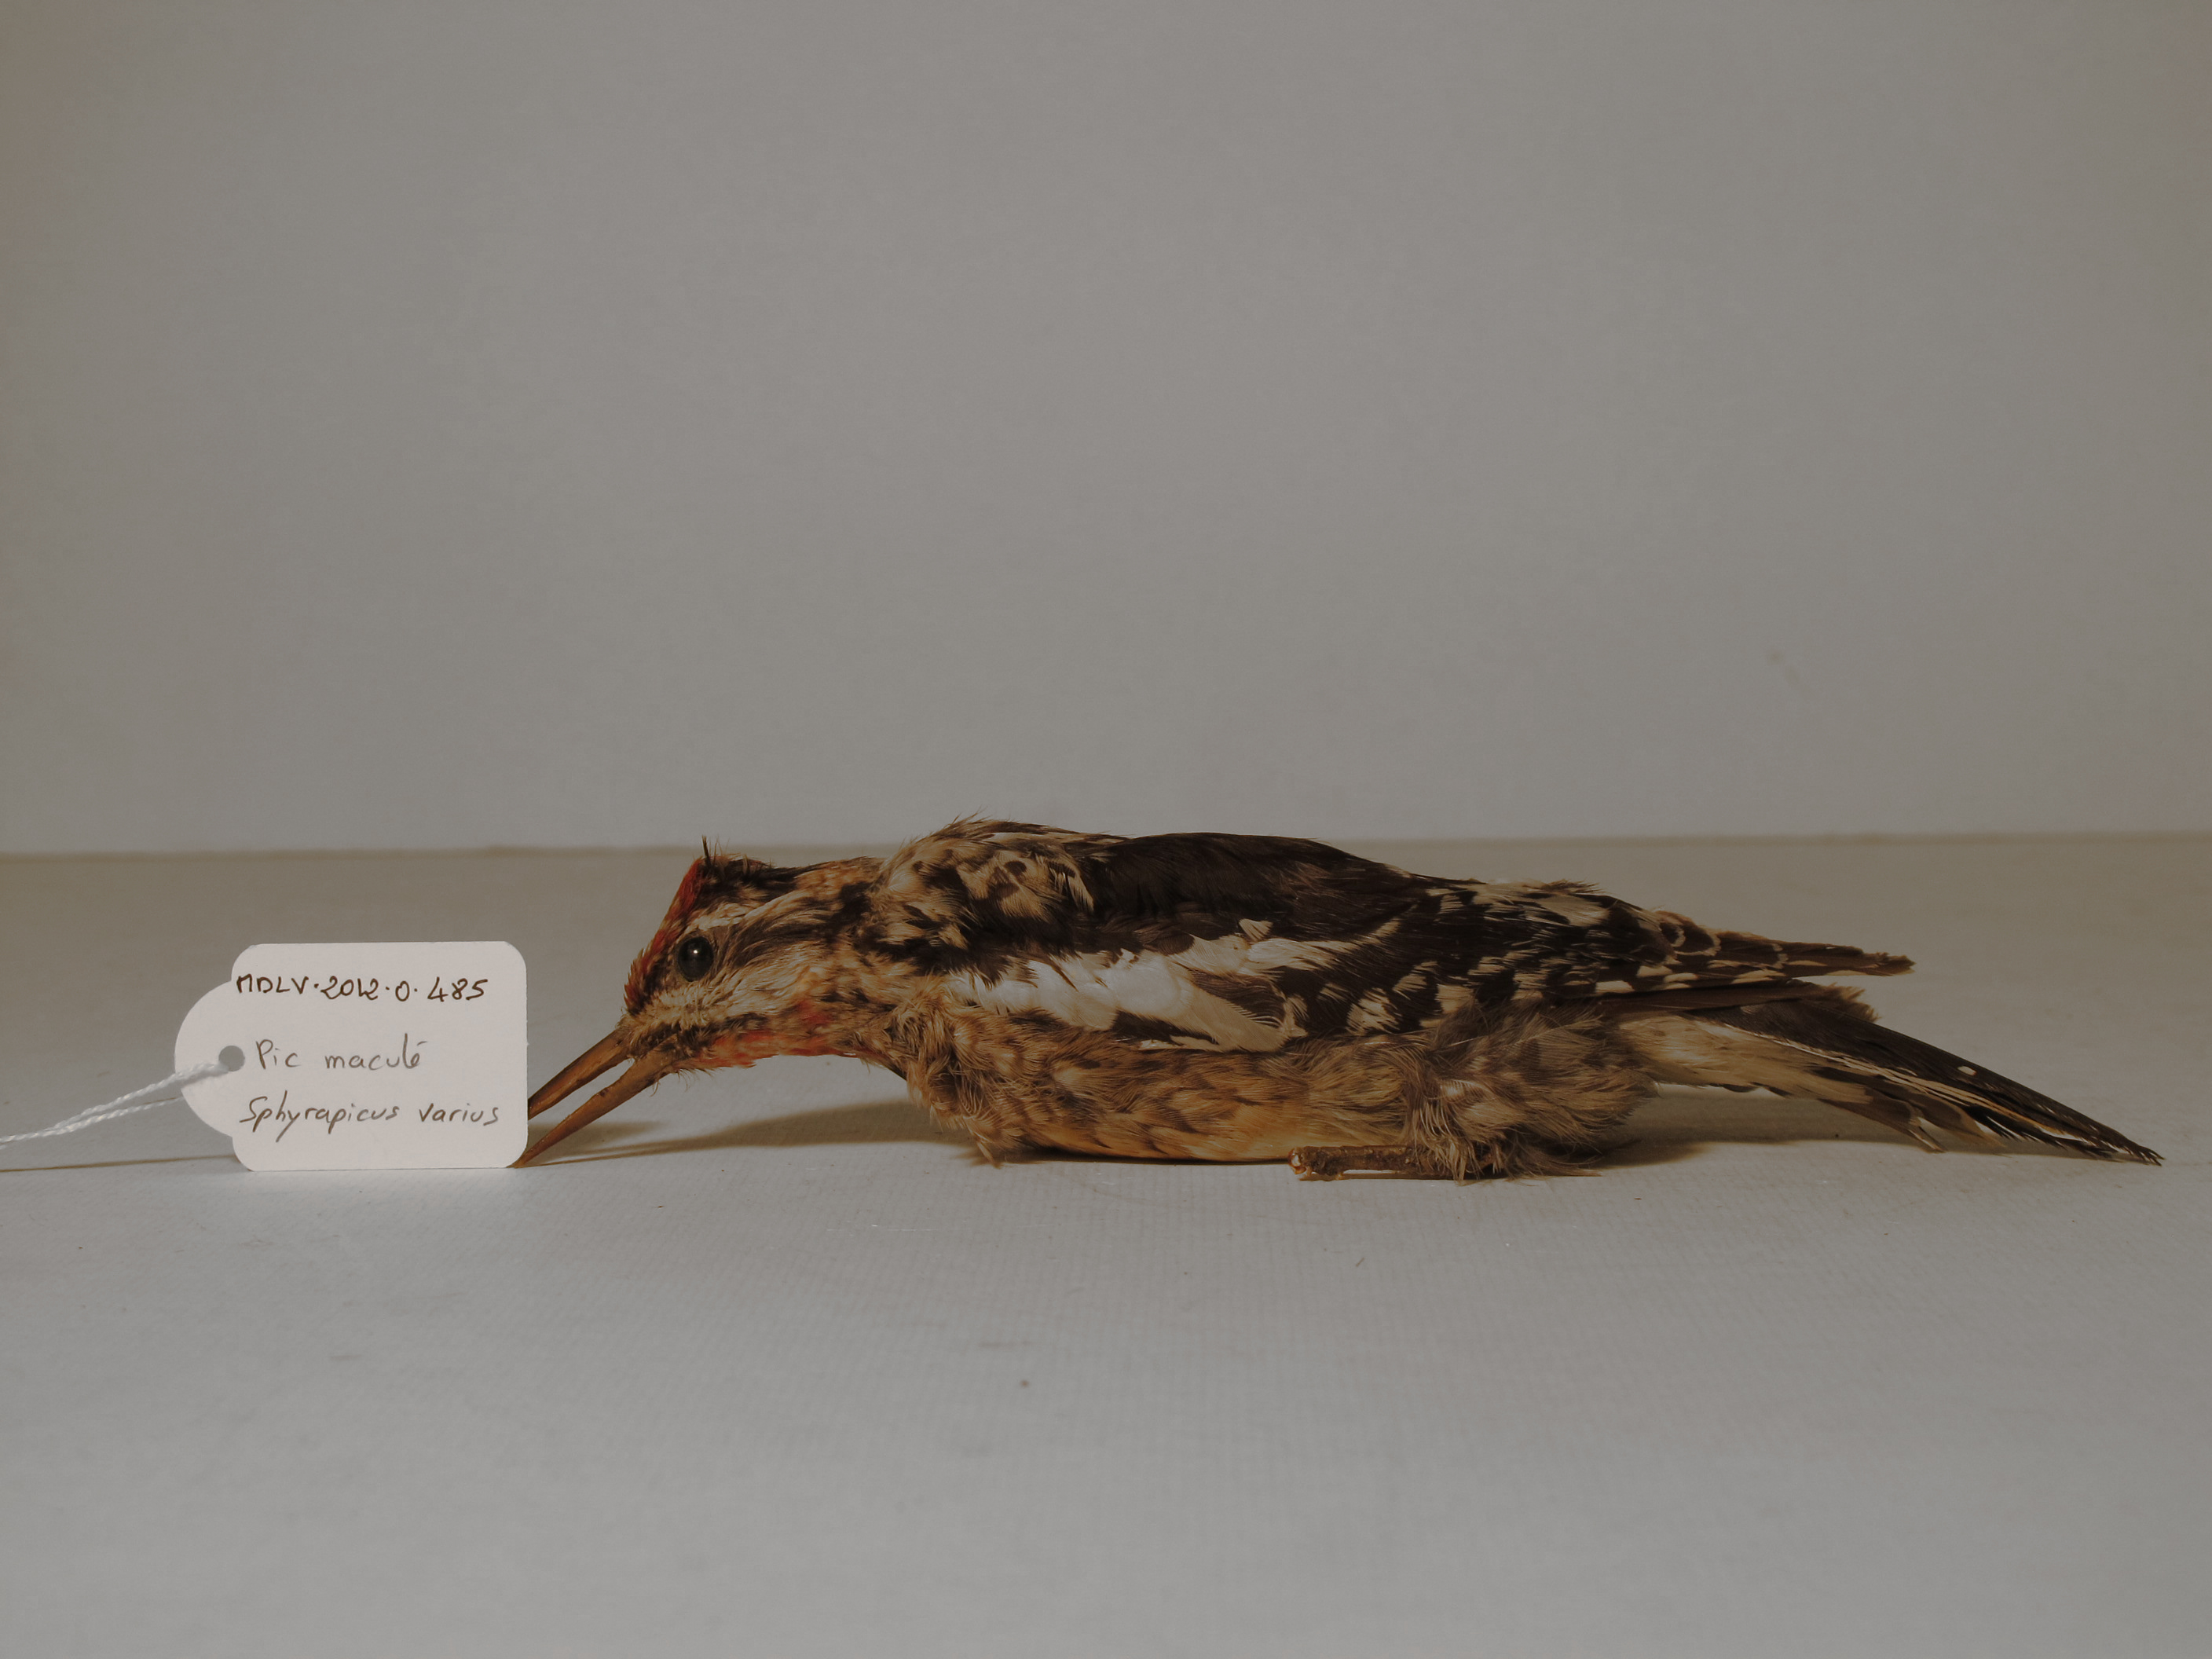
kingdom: Animalia
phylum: Chordata
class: Aves
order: Piciformes
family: Picidae
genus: Sphyrapicus
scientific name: Sphyrapicus varius
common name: Yellow-bellied Sapsucker
